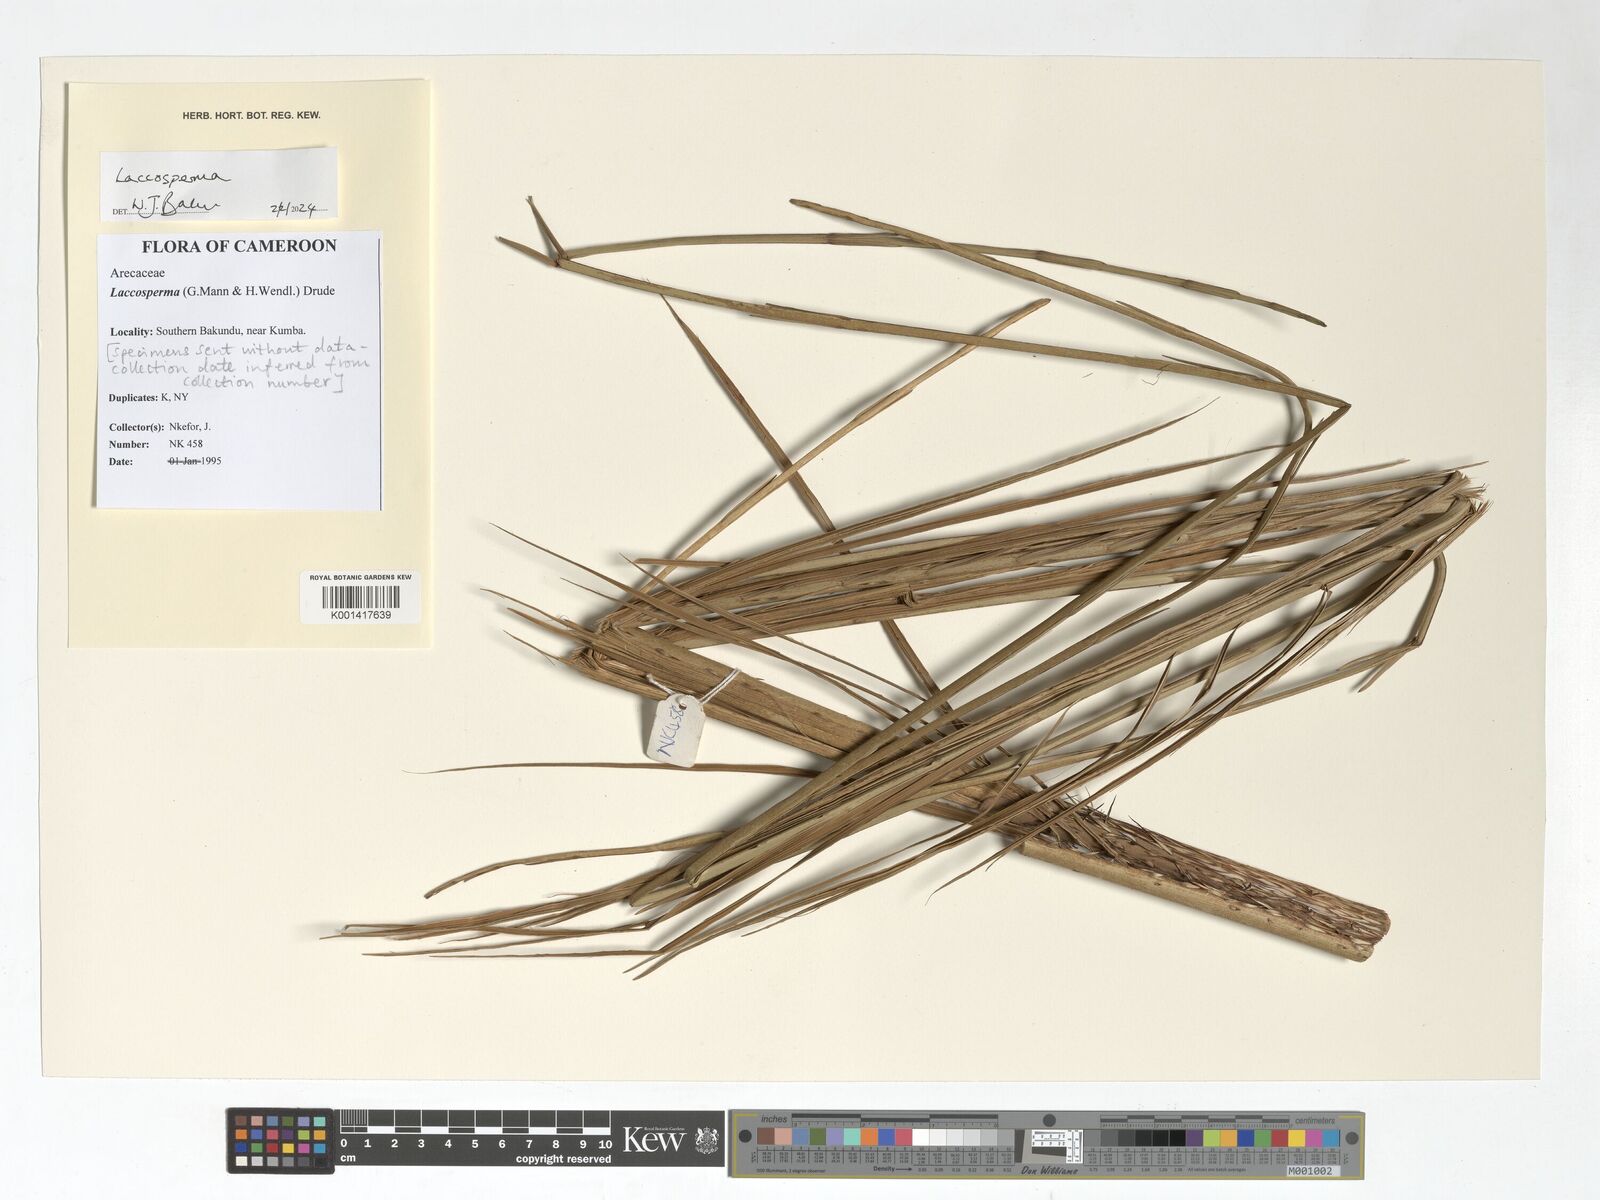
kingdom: Plantae
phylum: Tracheophyta
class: Liliopsida
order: Arecales
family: Arecaceae
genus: Laccosperma
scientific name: Laccosperma
